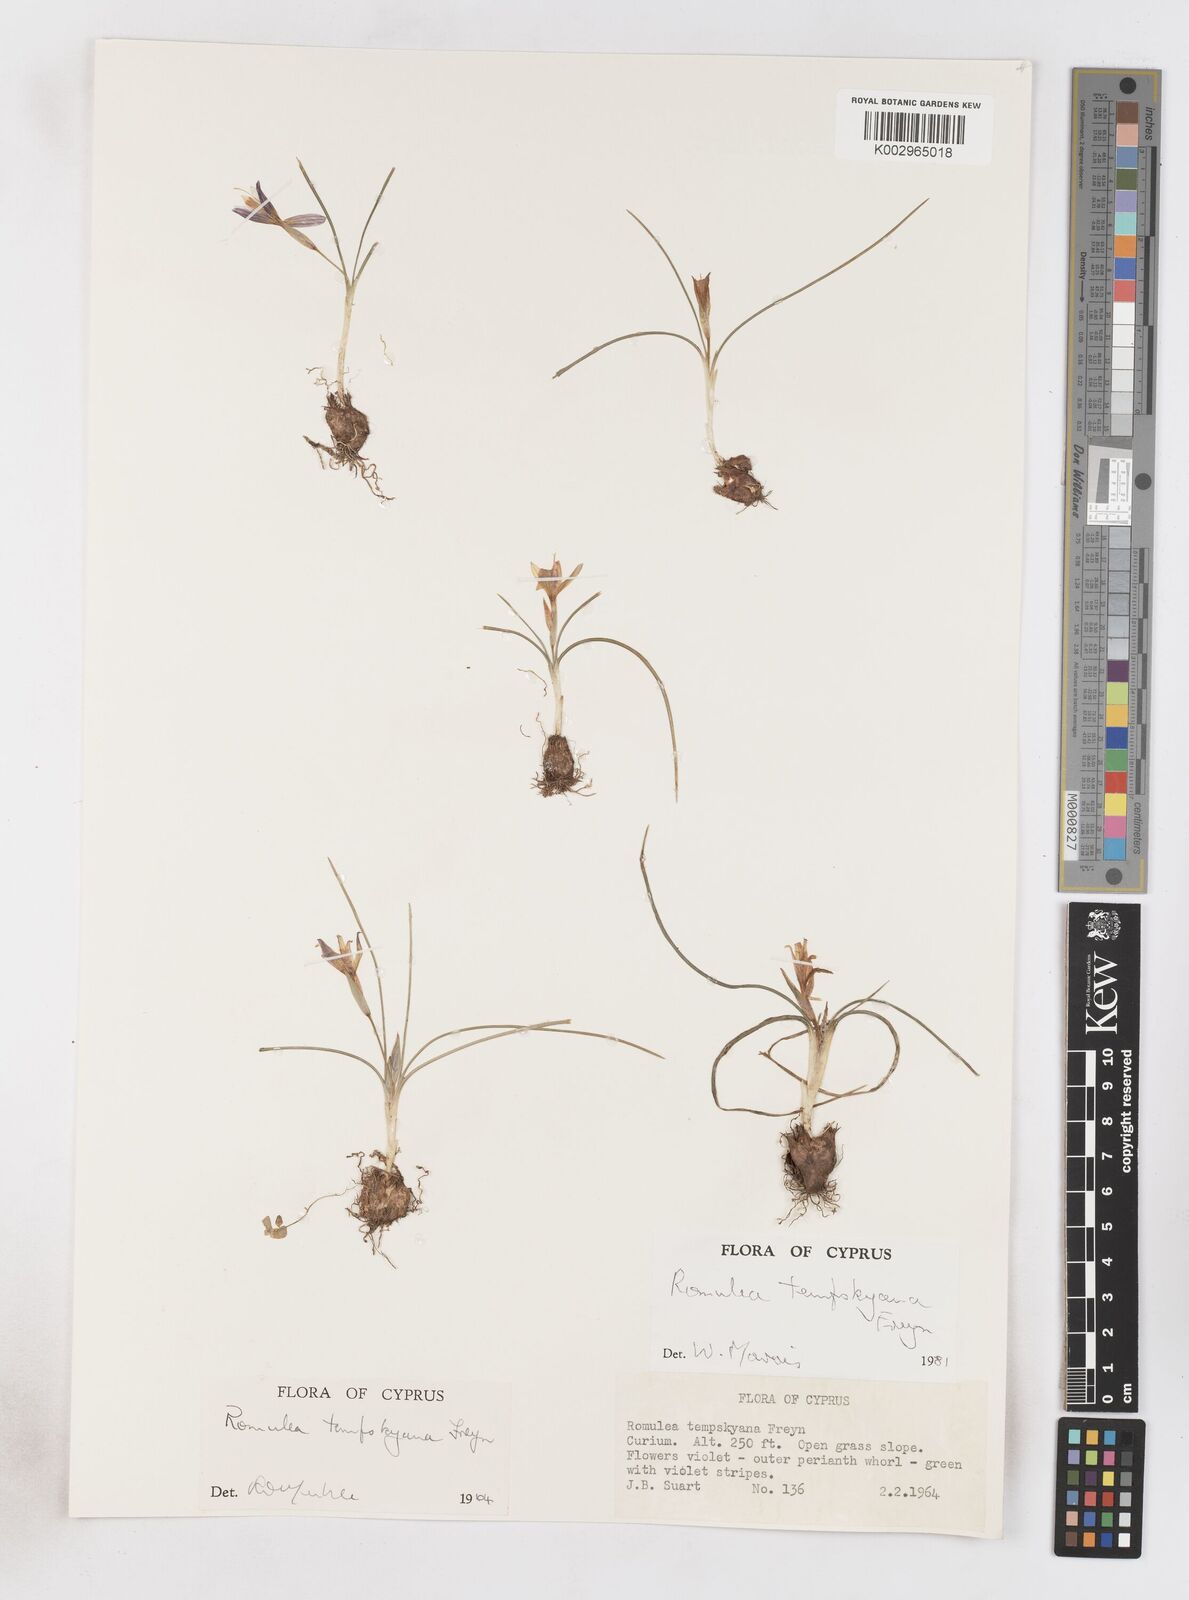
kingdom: Plantae
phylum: Tracheophyta
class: Liliopsida
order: Asparagales
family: Iridaceae
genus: Romulea
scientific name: Romulea tempskyana
